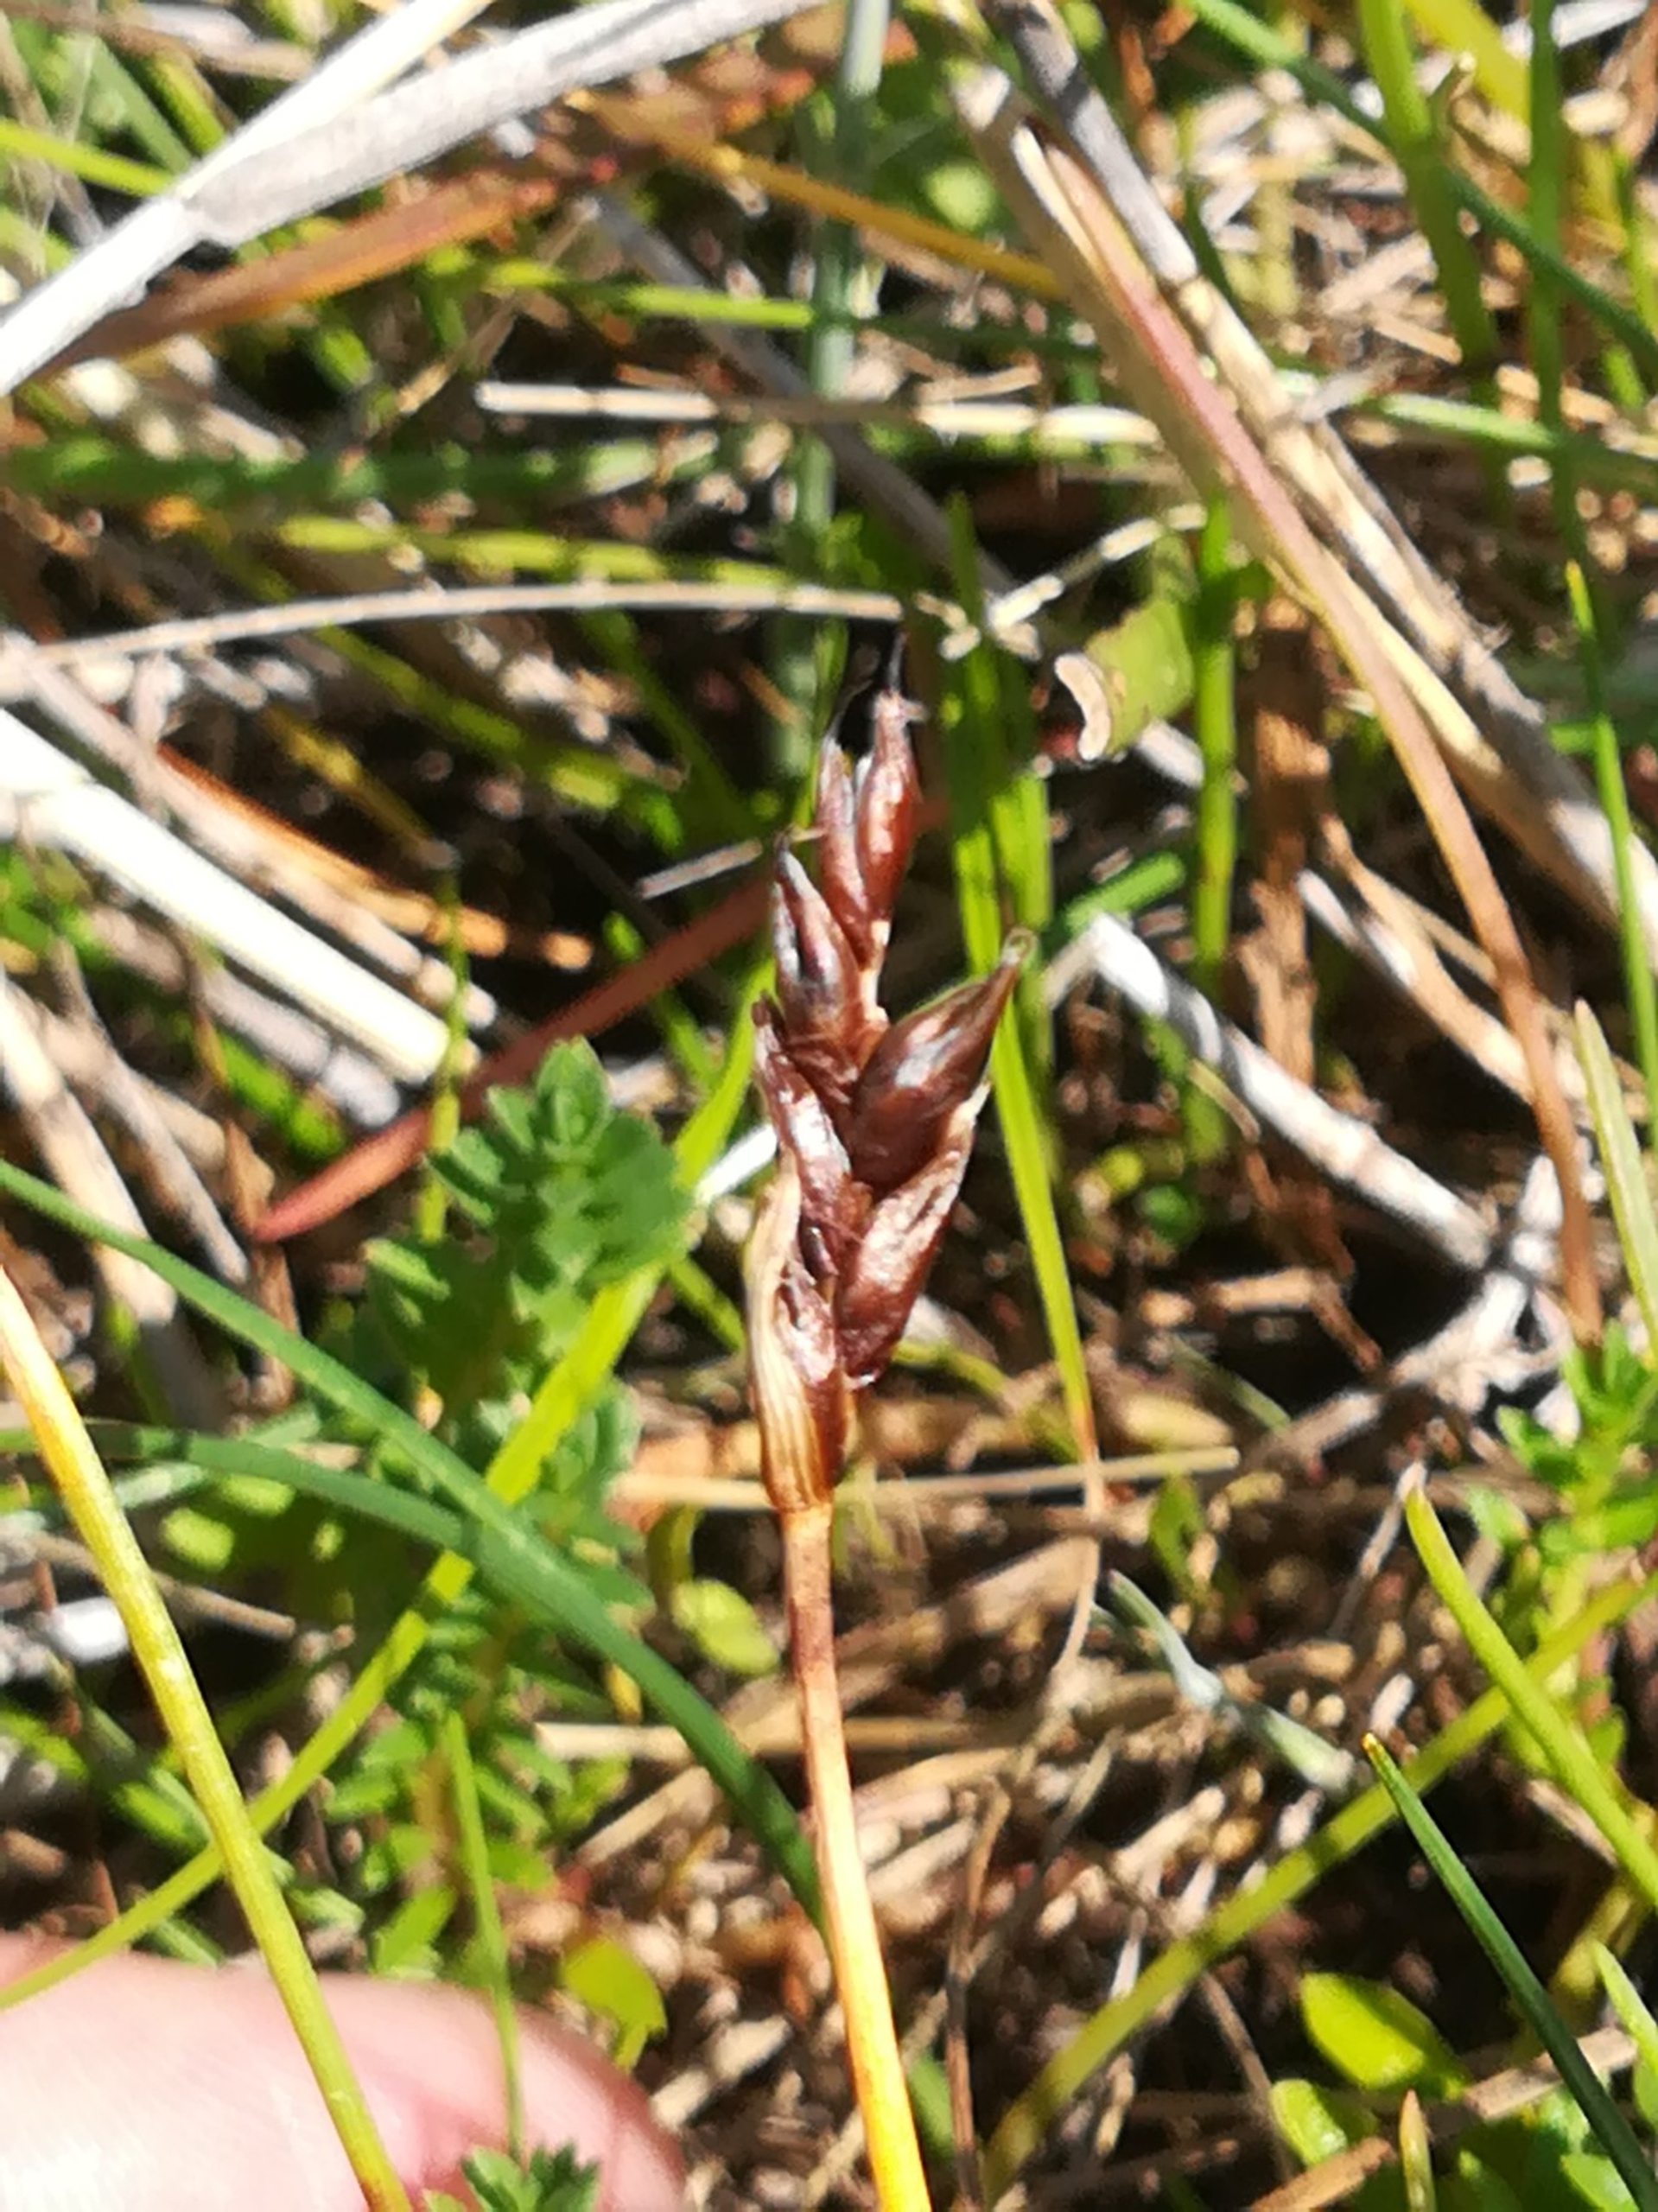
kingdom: Plantae
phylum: Tracheophyta
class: Liliopsida
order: Poales
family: Cyperaceae
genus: Blysmus
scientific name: Blysmus rufus
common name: Rødbrun kogleaks
